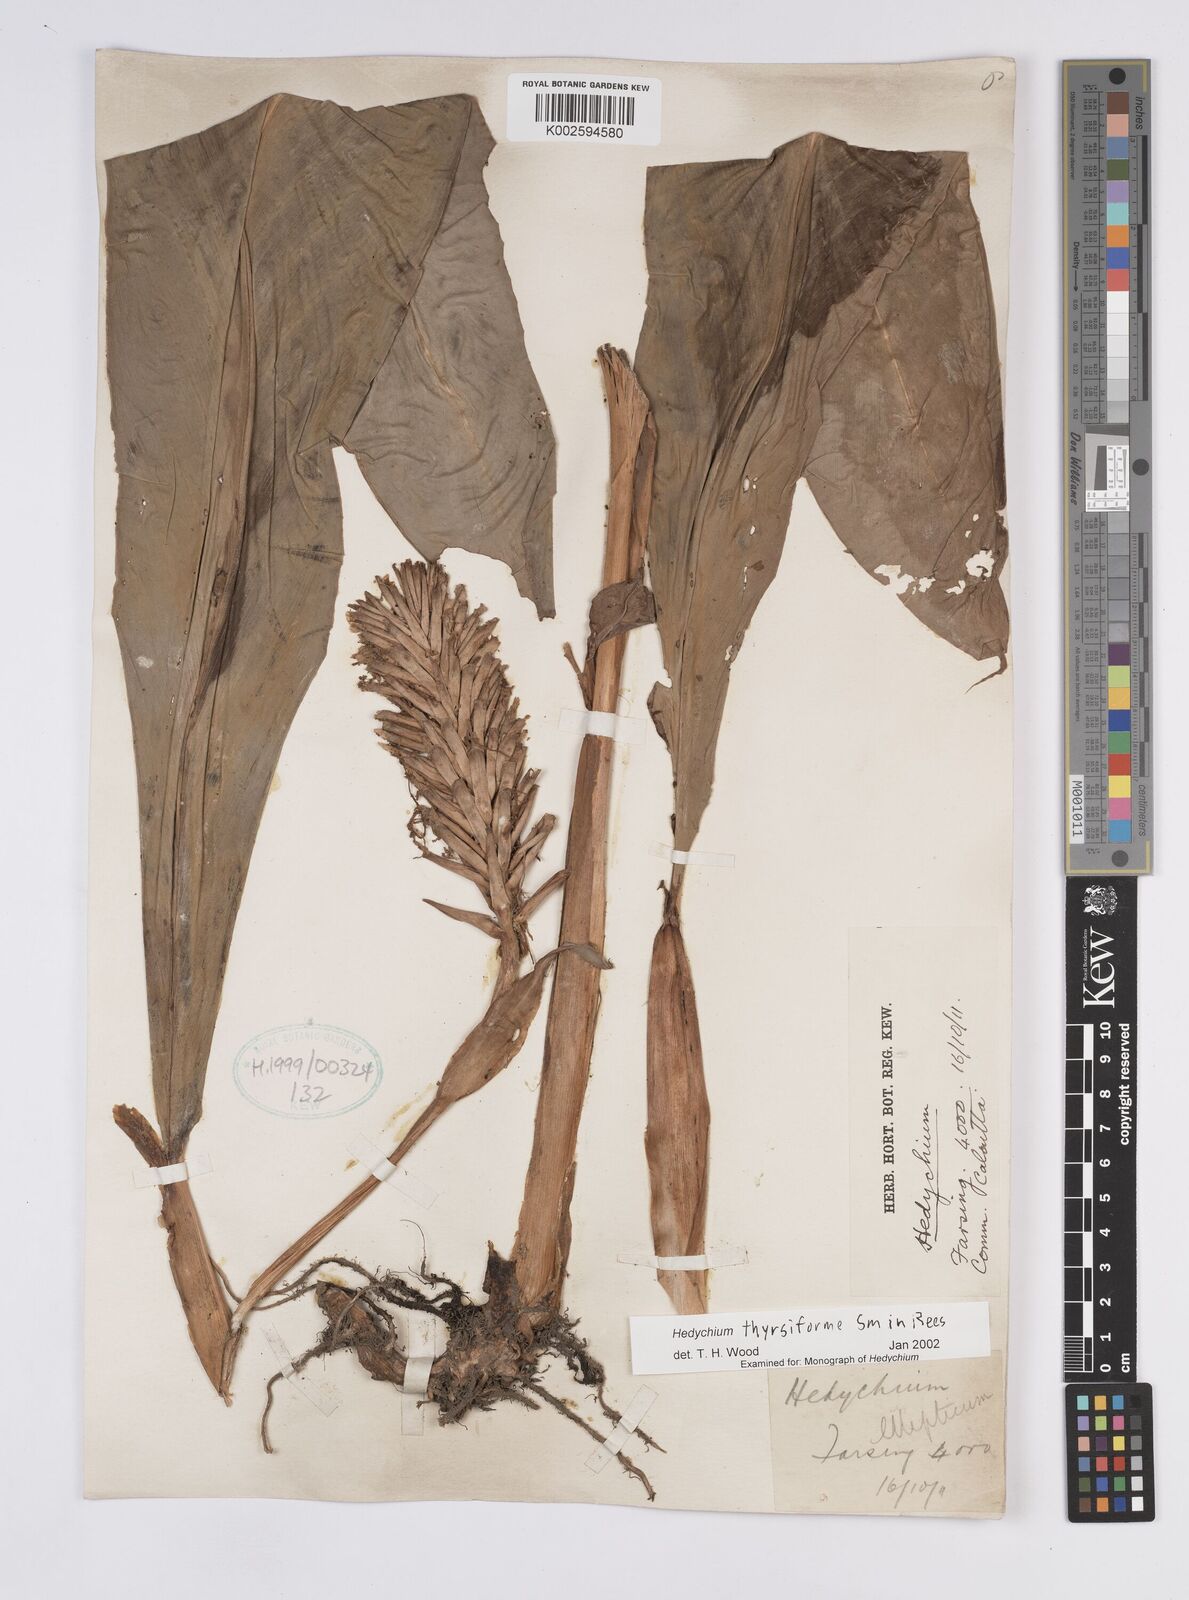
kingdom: Plantae
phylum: Tracheophyta
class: Liliopsida
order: Zingiberales
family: Zingiberaceae
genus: Hedychium
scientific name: Hedychium thyrsiforme
